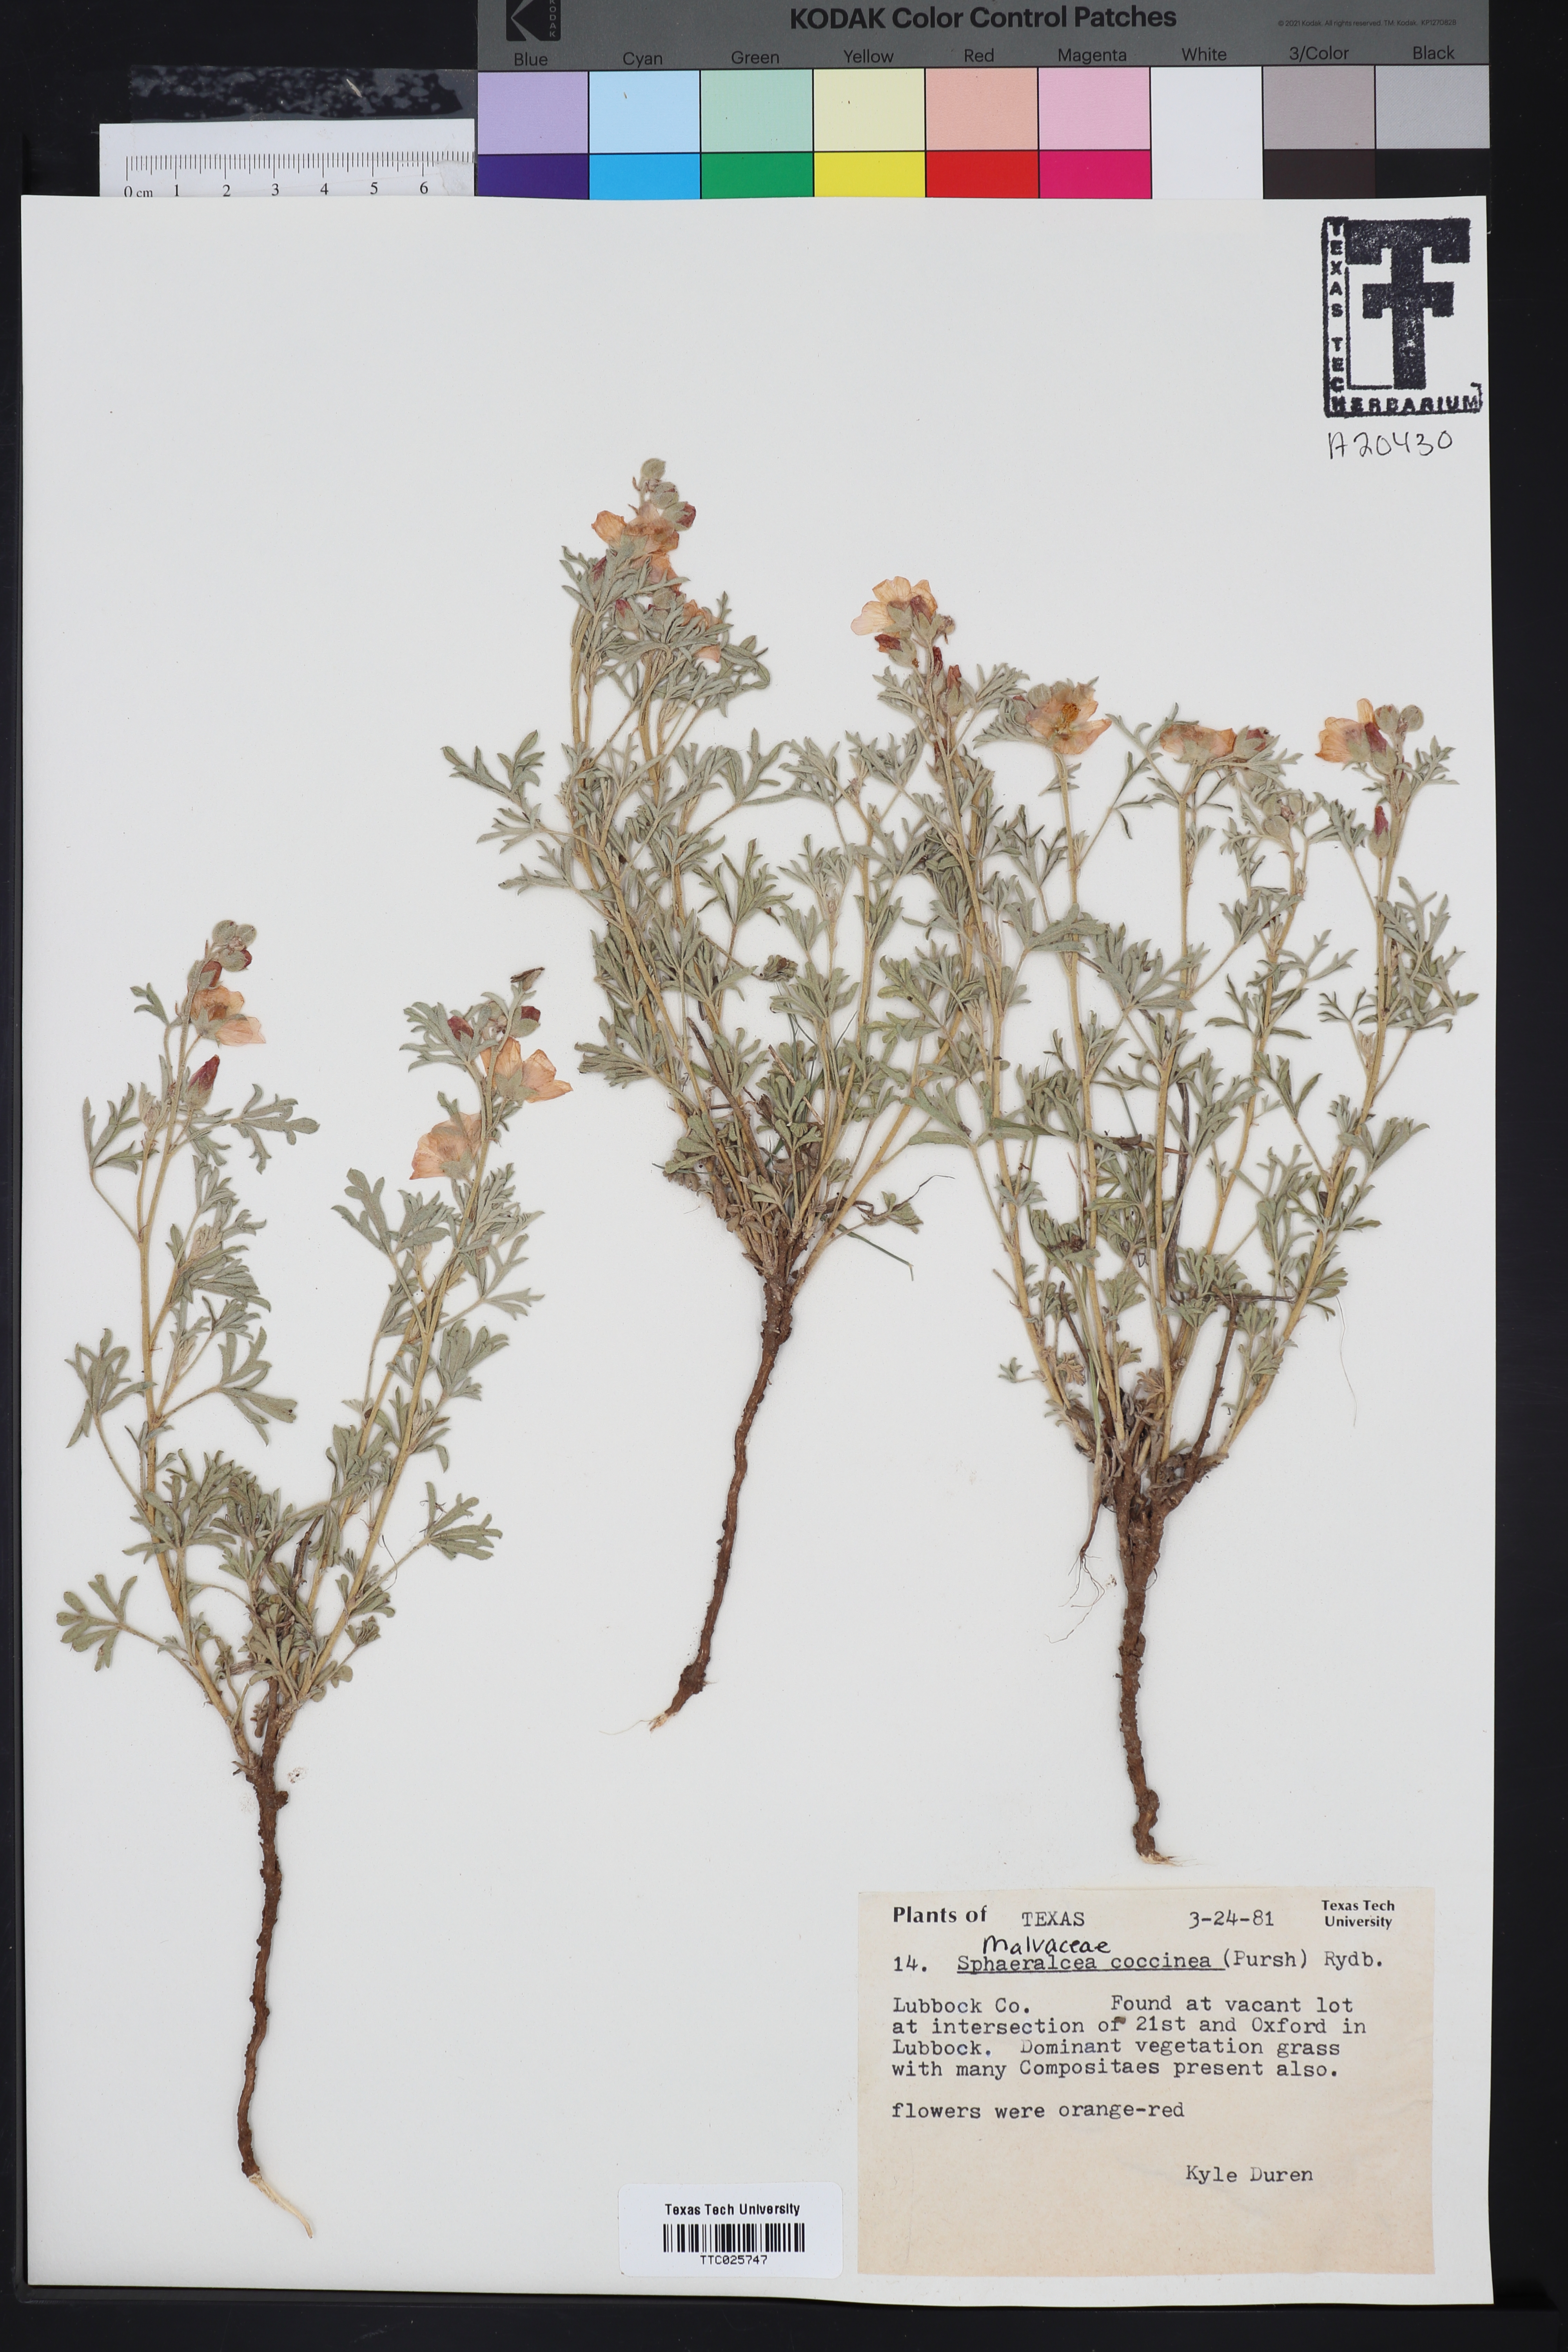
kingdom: Plantae
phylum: Tracheophyta
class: Magnoliopsida
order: Malvales
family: Malvaceae
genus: Sphaeralcea
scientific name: Sphaeralcea coccinea
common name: Moss-rose
